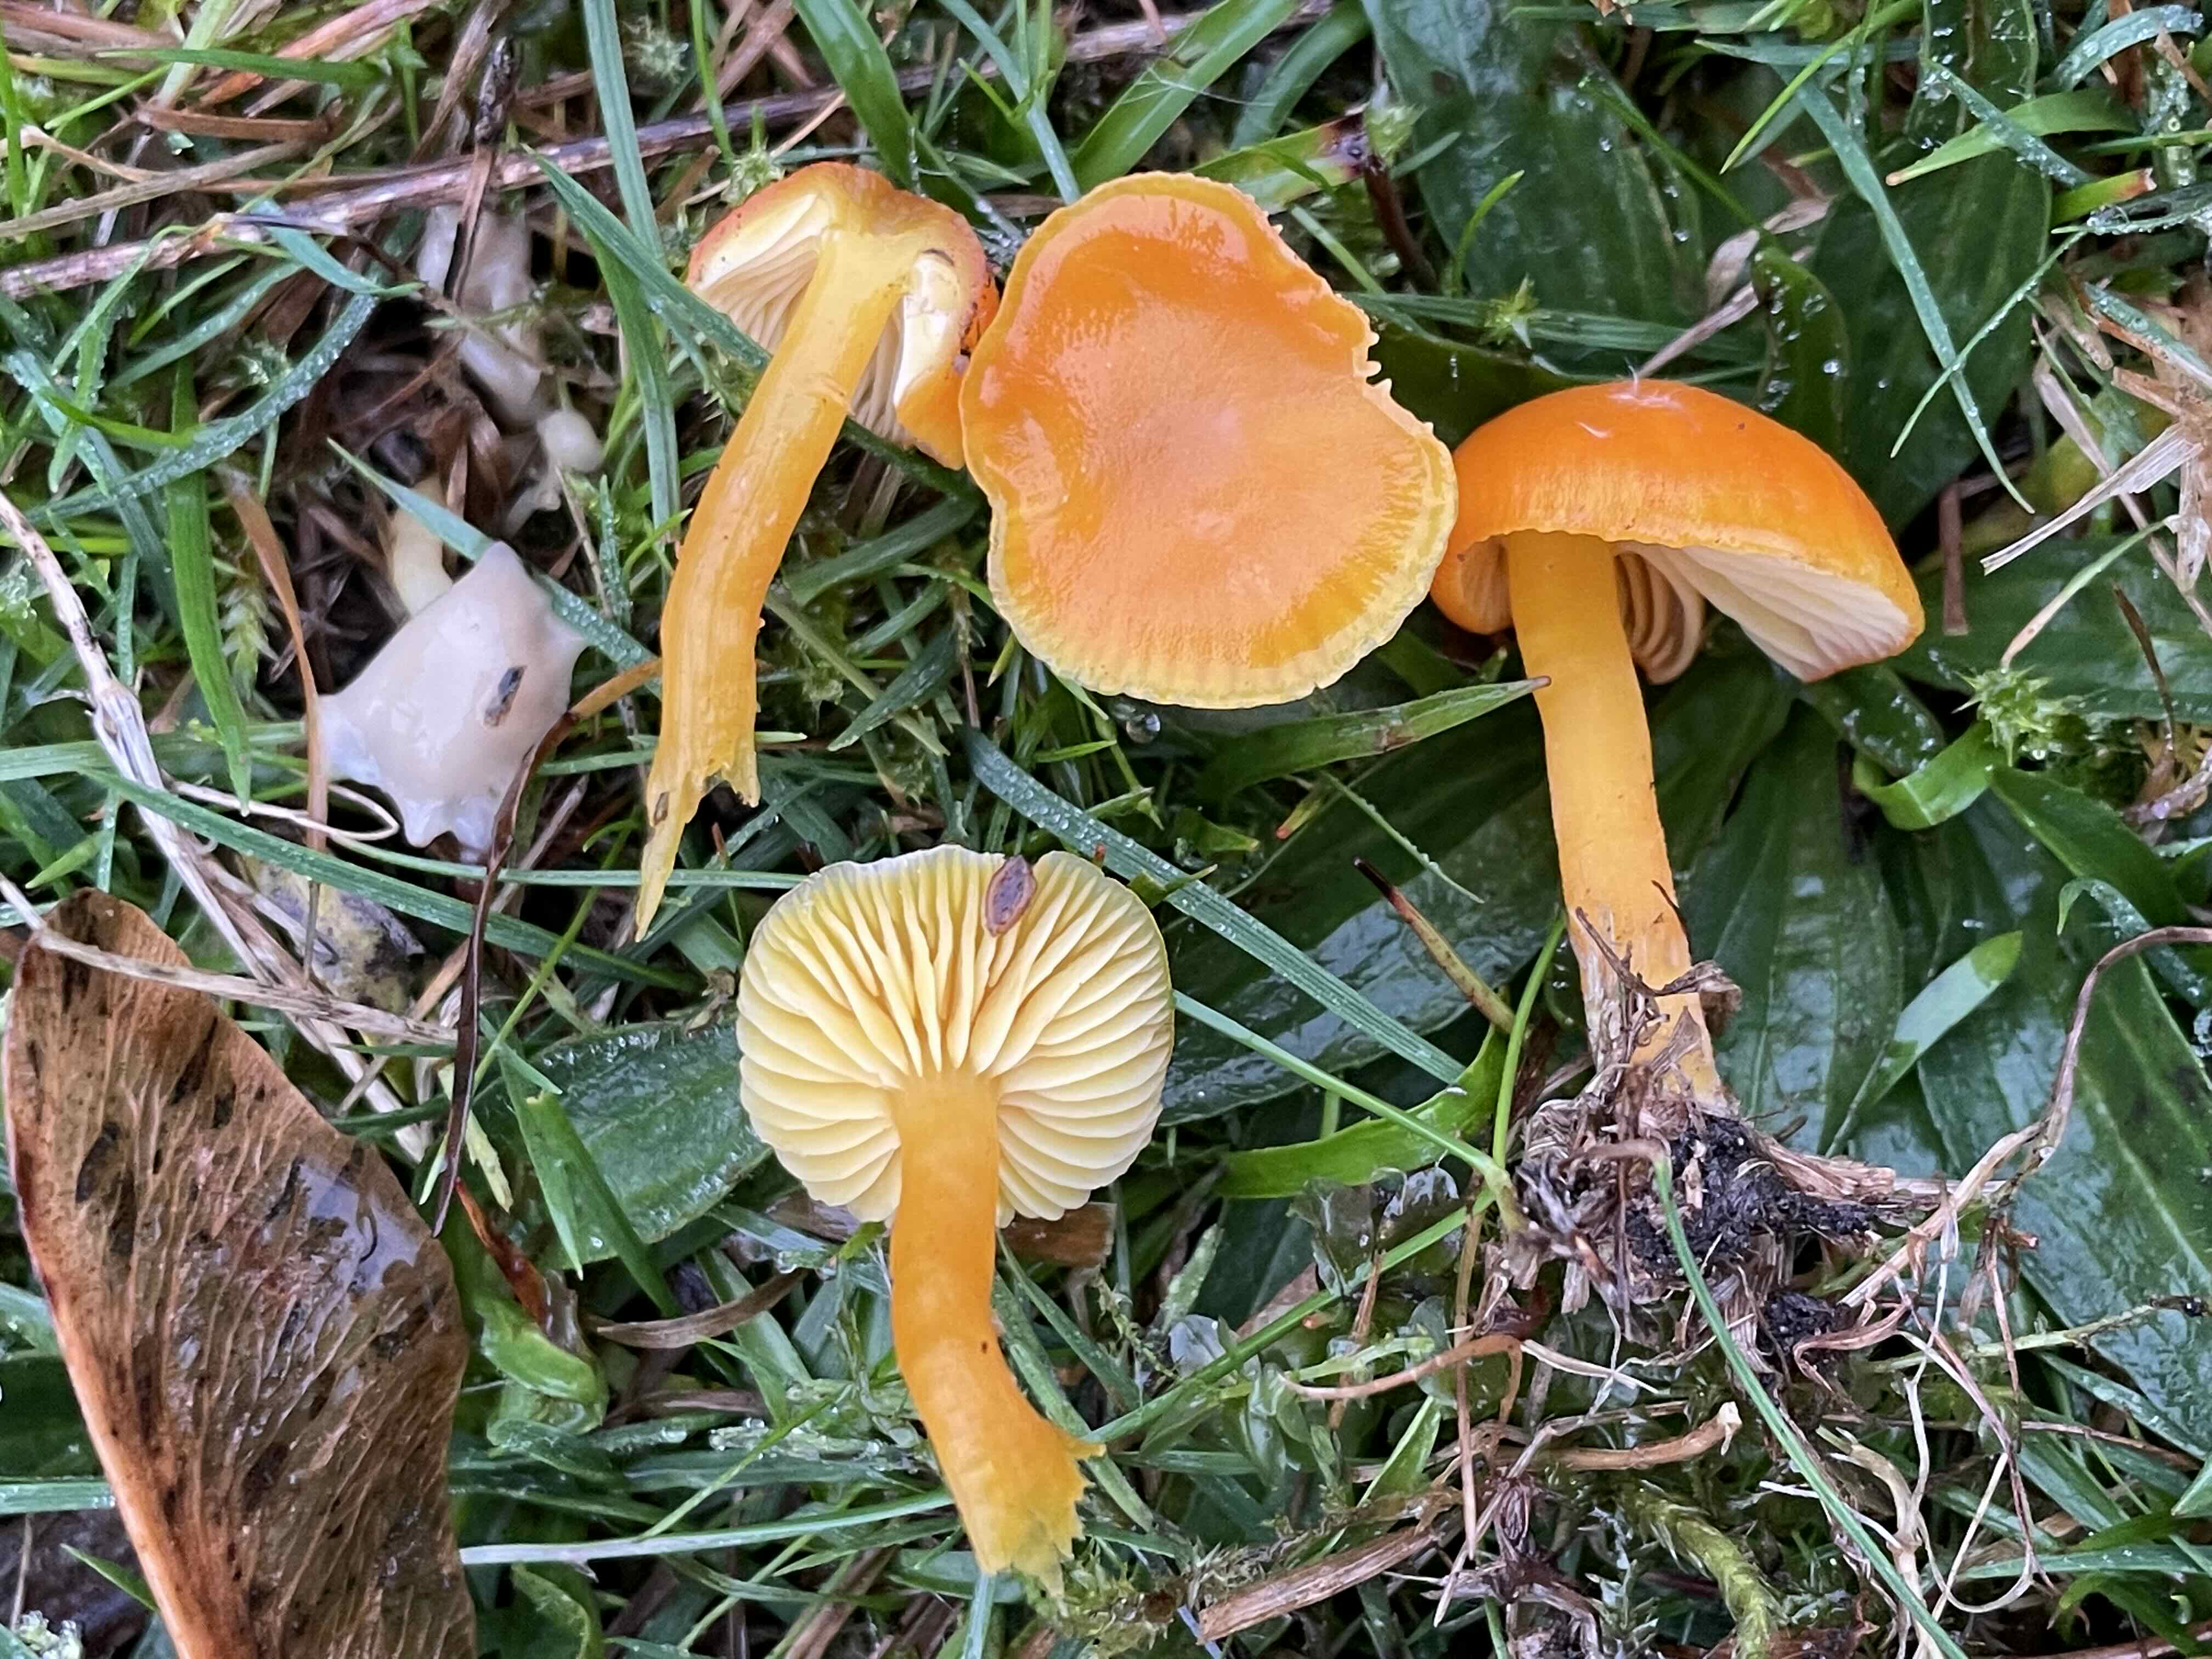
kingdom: Fungi
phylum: Basidiomycota
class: Agaricomycetes
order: Agaricales
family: Hygrophoraceae
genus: Hygrocybe
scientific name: Hygrocybe ceracea
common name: voksgul vokshat
